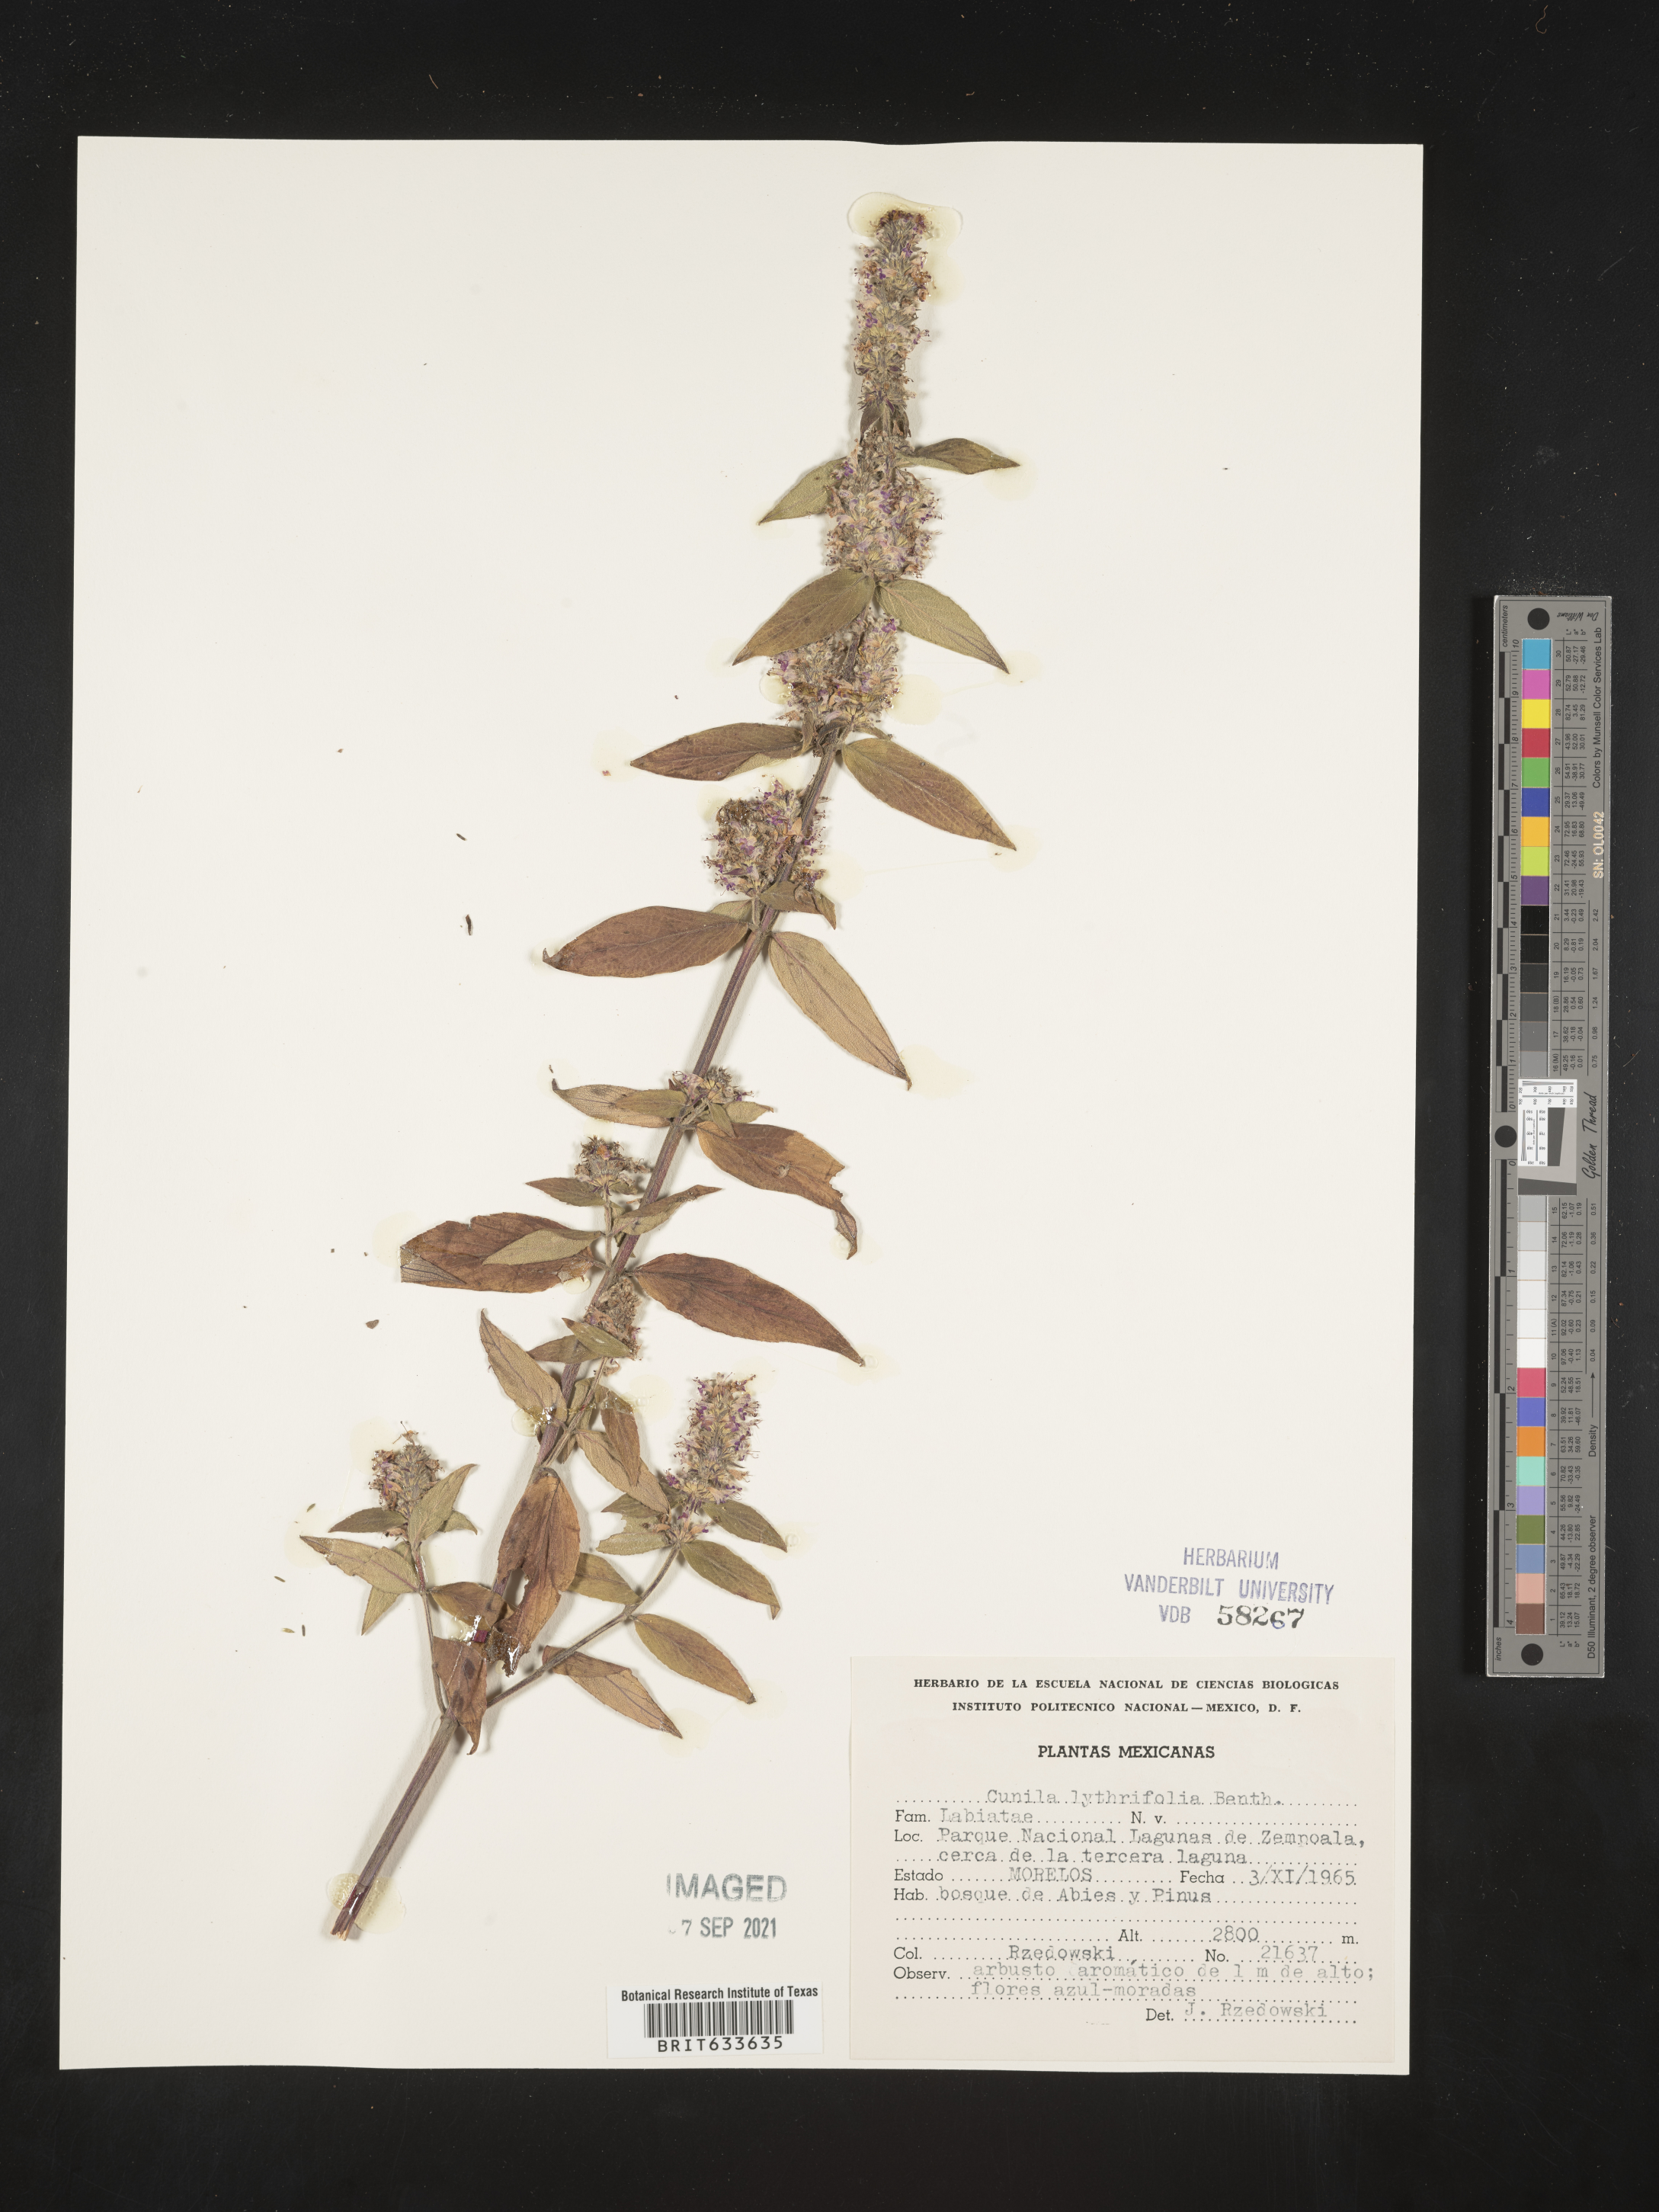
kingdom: Plantae
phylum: Tracheophyta
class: Magnoliopsida
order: Lamiales
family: Lamiaceae
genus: Cunila
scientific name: Cunila
